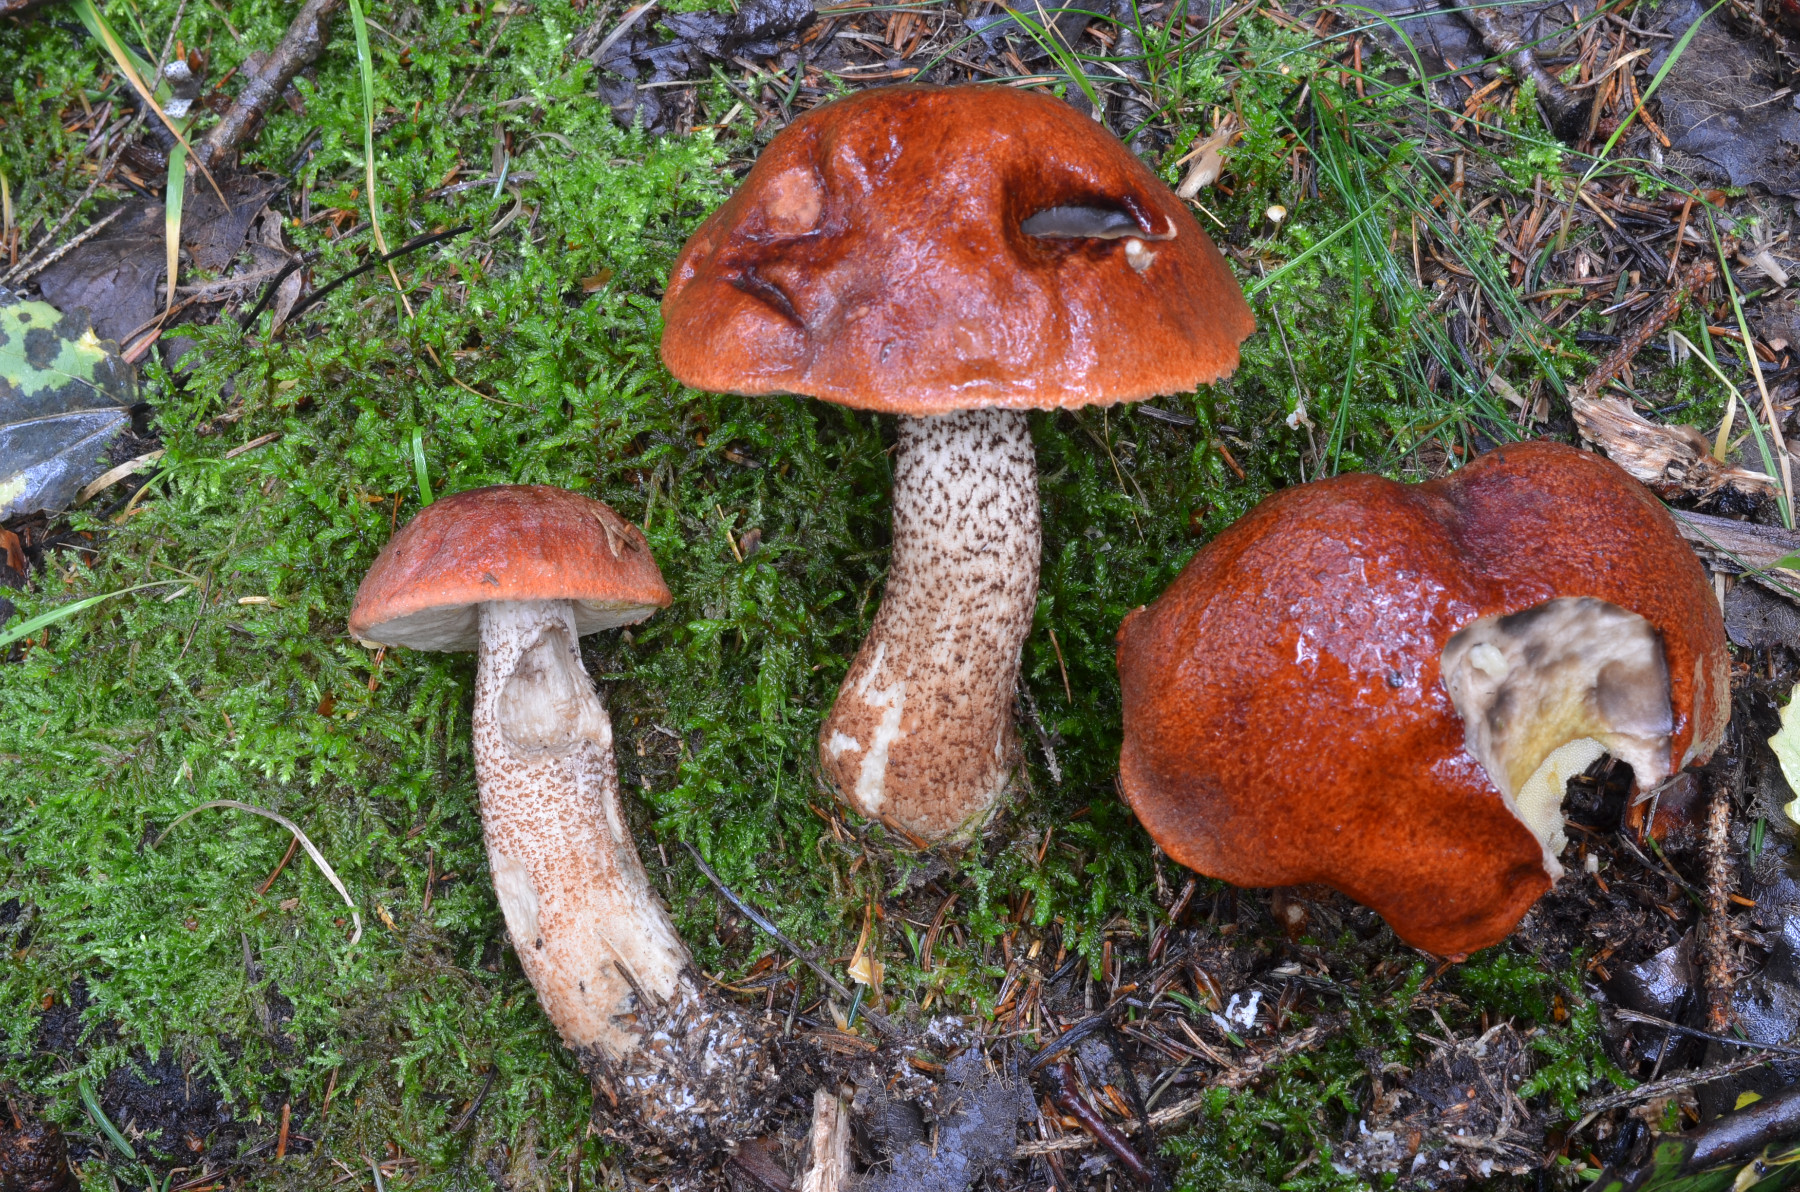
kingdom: Fungi
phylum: Basidiomycota
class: Agaricomycetes
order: Boletales
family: Boletaceae
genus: Leccinum
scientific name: Leccinum
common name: skælrørhat
